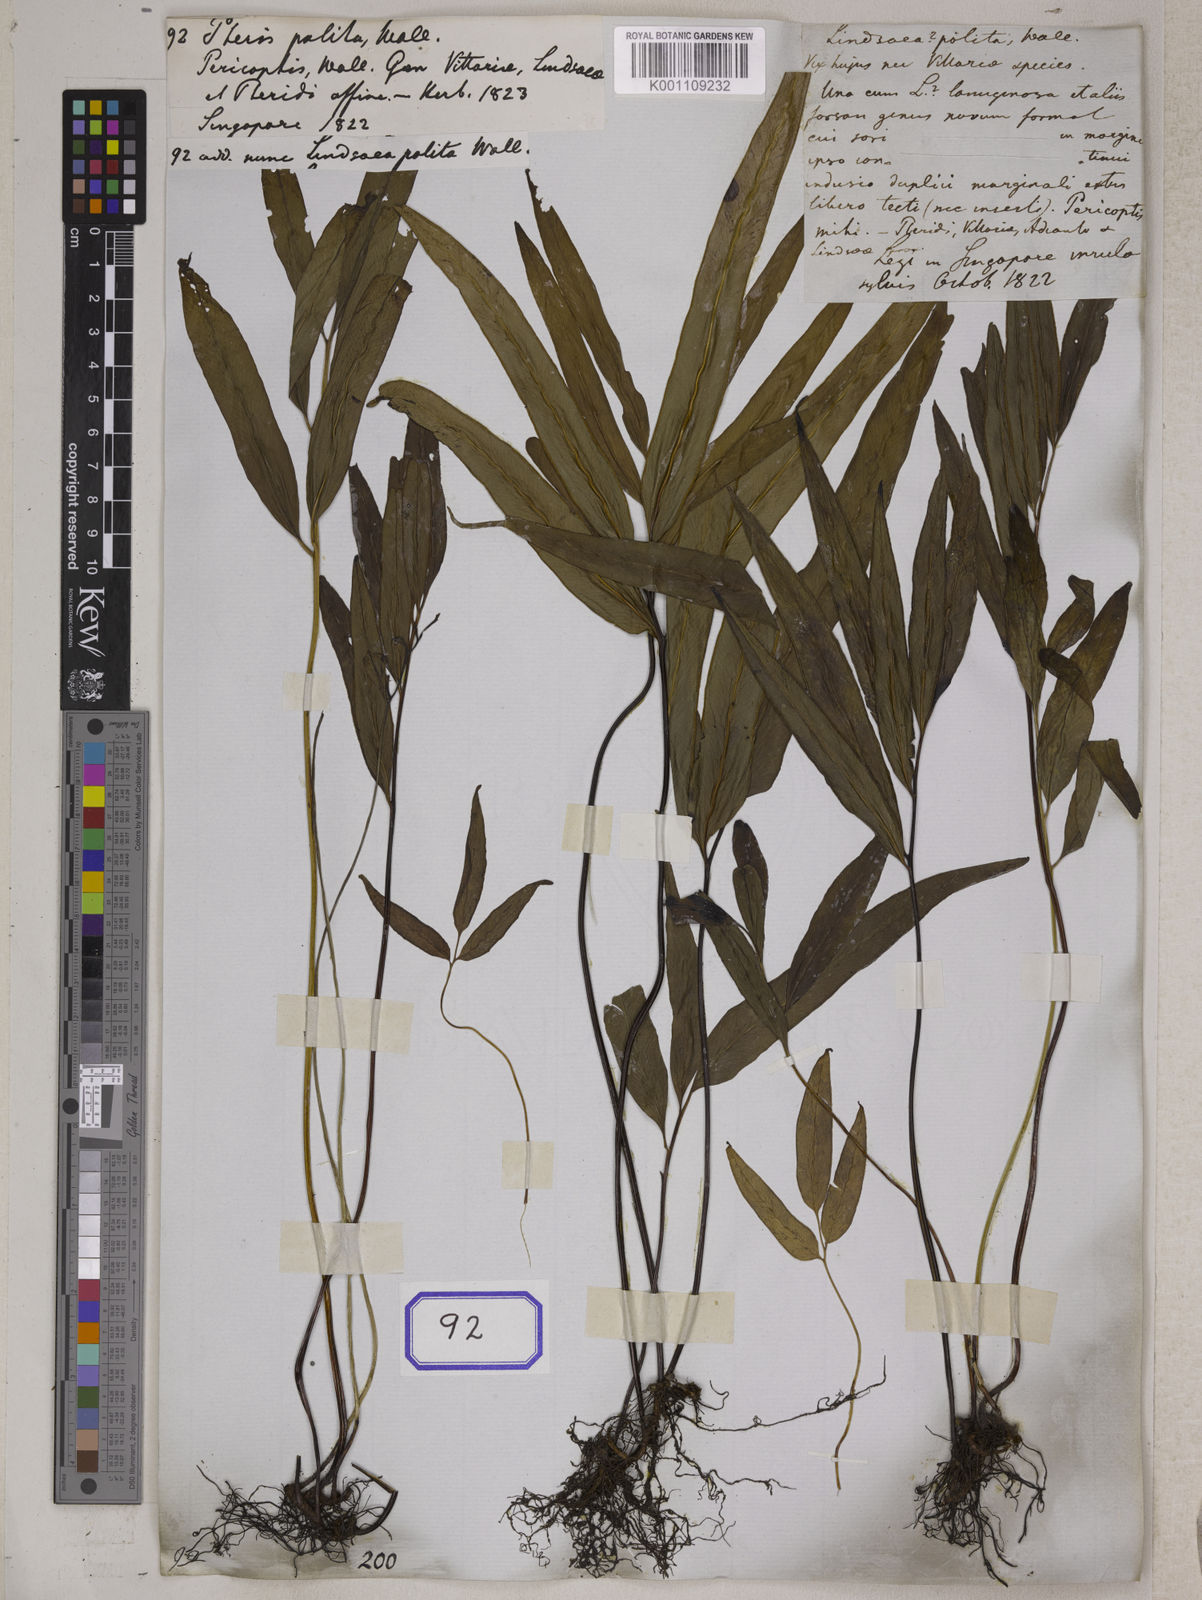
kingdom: Plantae
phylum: Tracheophyta
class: Polypodiopsida
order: Polypodiales
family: Lindsaeaceae
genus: Lindsaea
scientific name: Lindsaea ensifolia
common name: Graceful necklace fern
